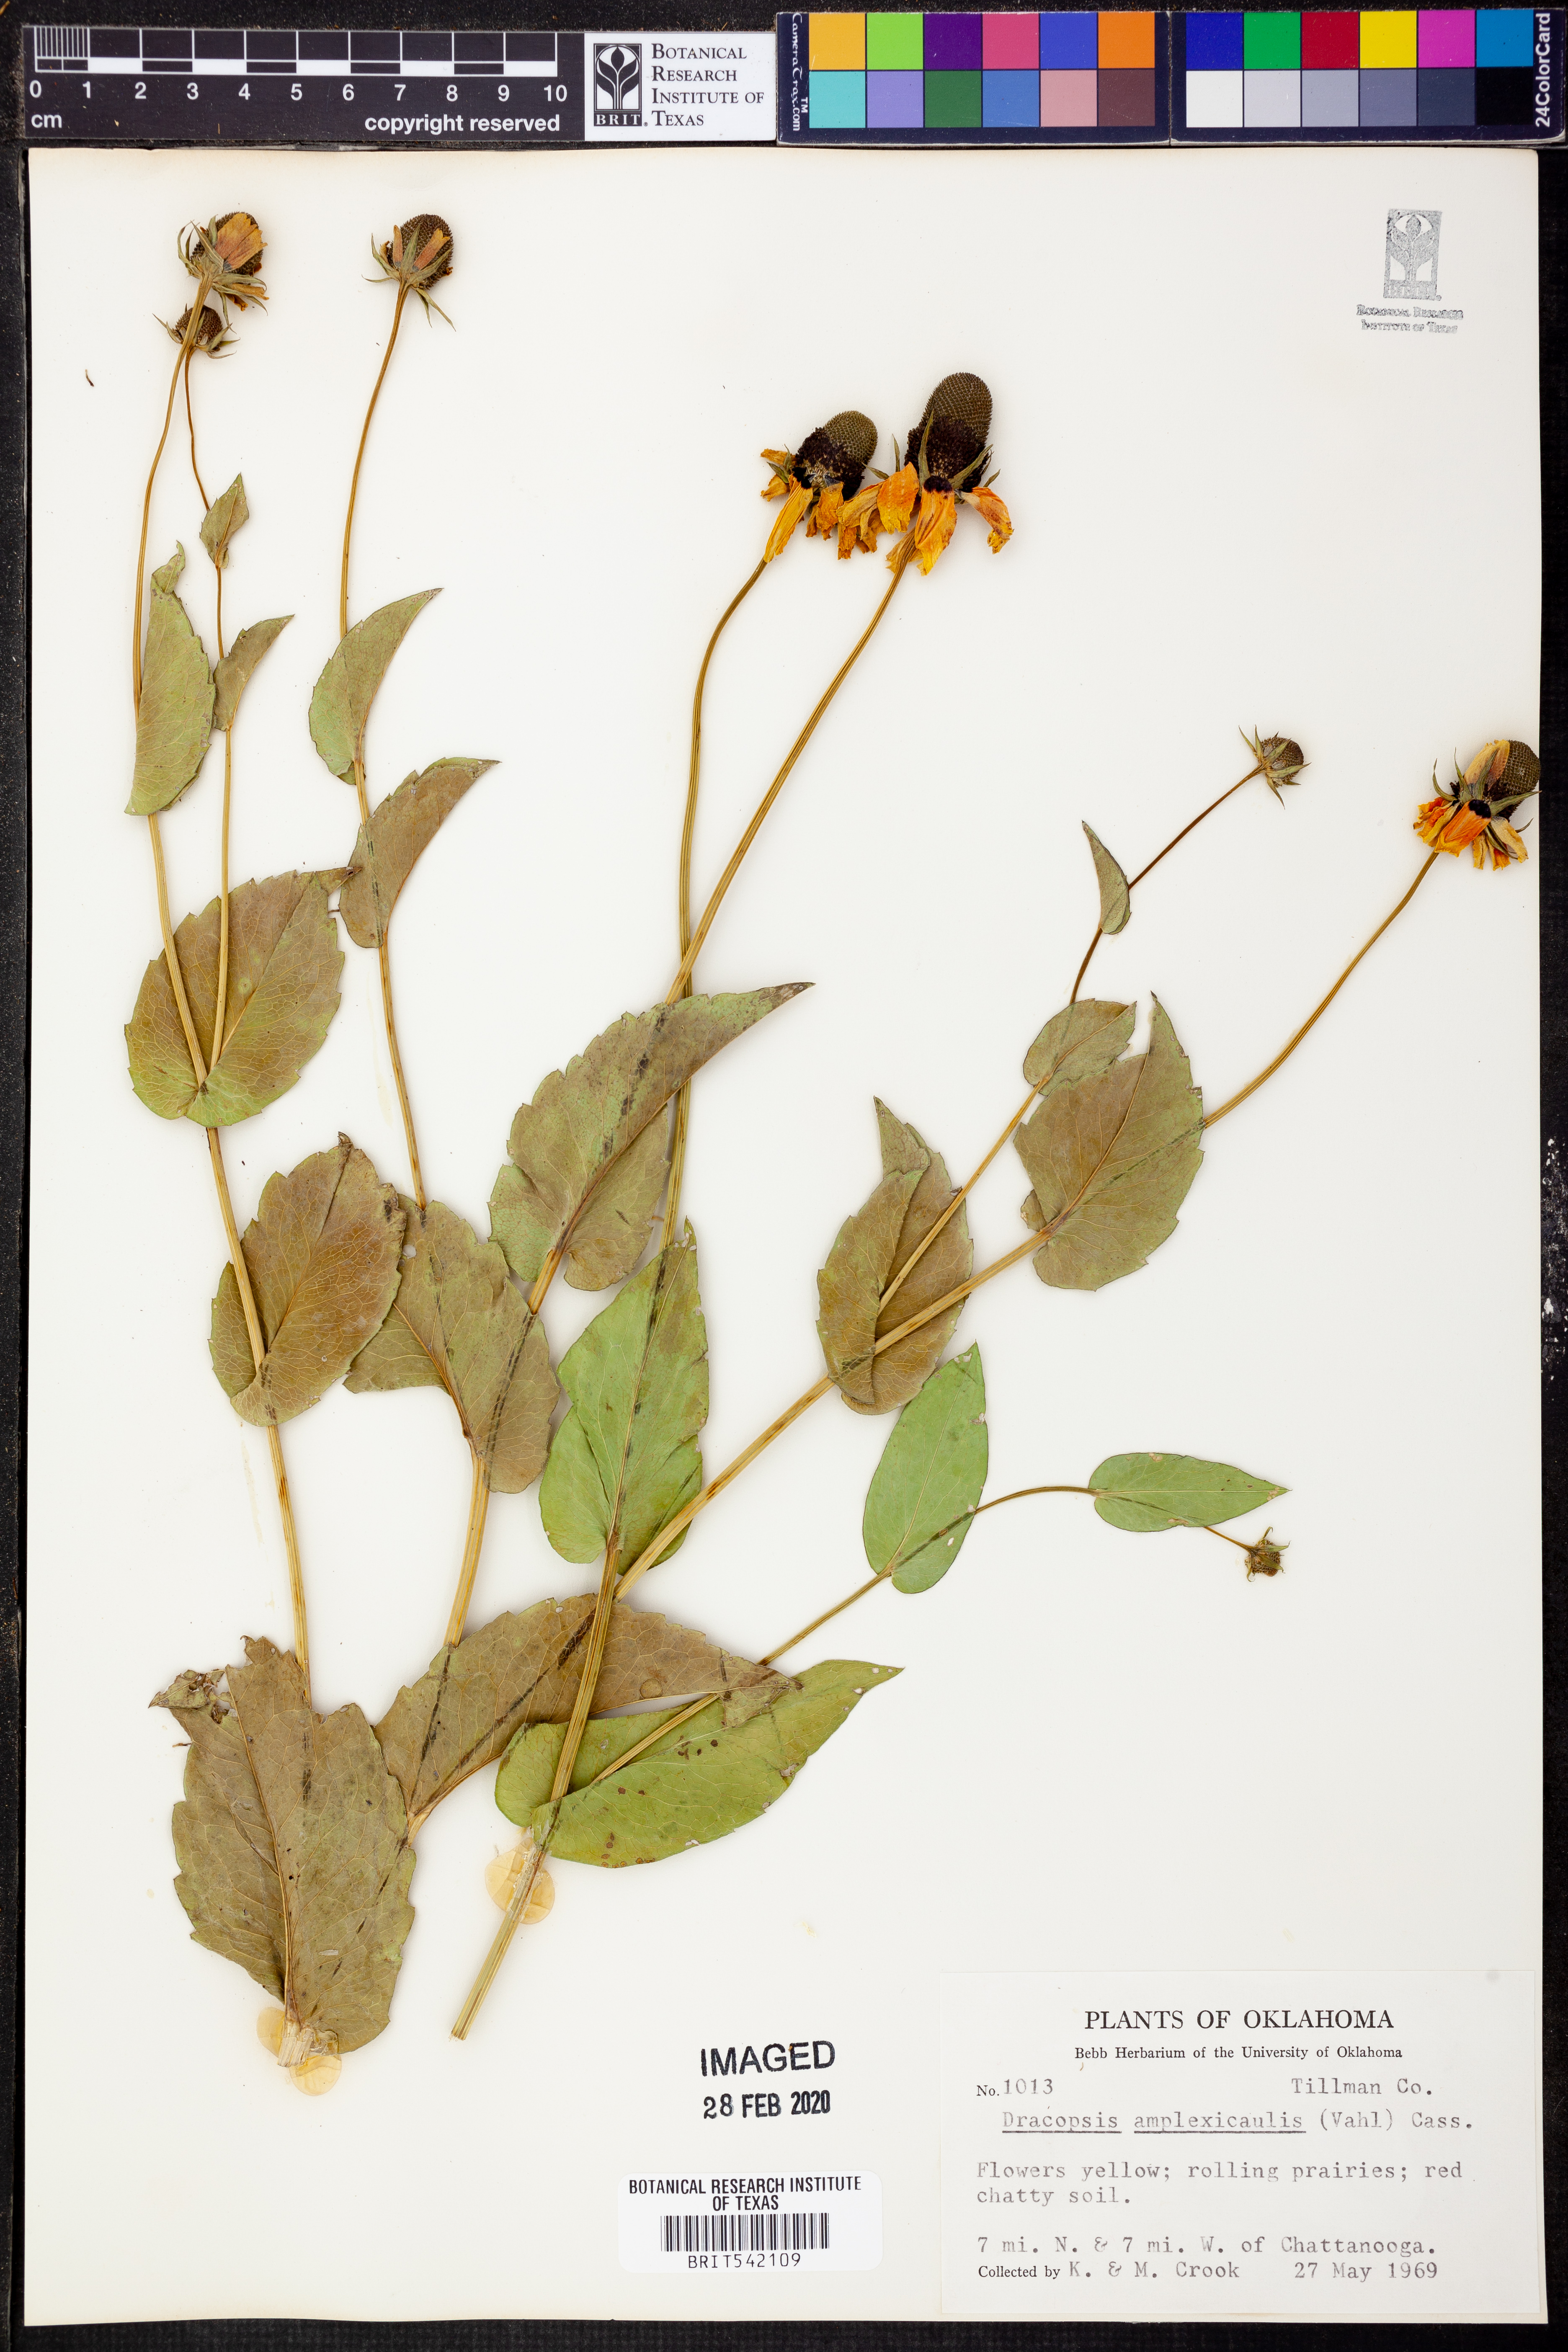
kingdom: Plantae
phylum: Tracheophyta
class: Magnoliopsida
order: Asterales
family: Asteraceae
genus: Rudbeckia
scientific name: Rudbeckia amplexicaulis
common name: Clasping-leaf coneflower
